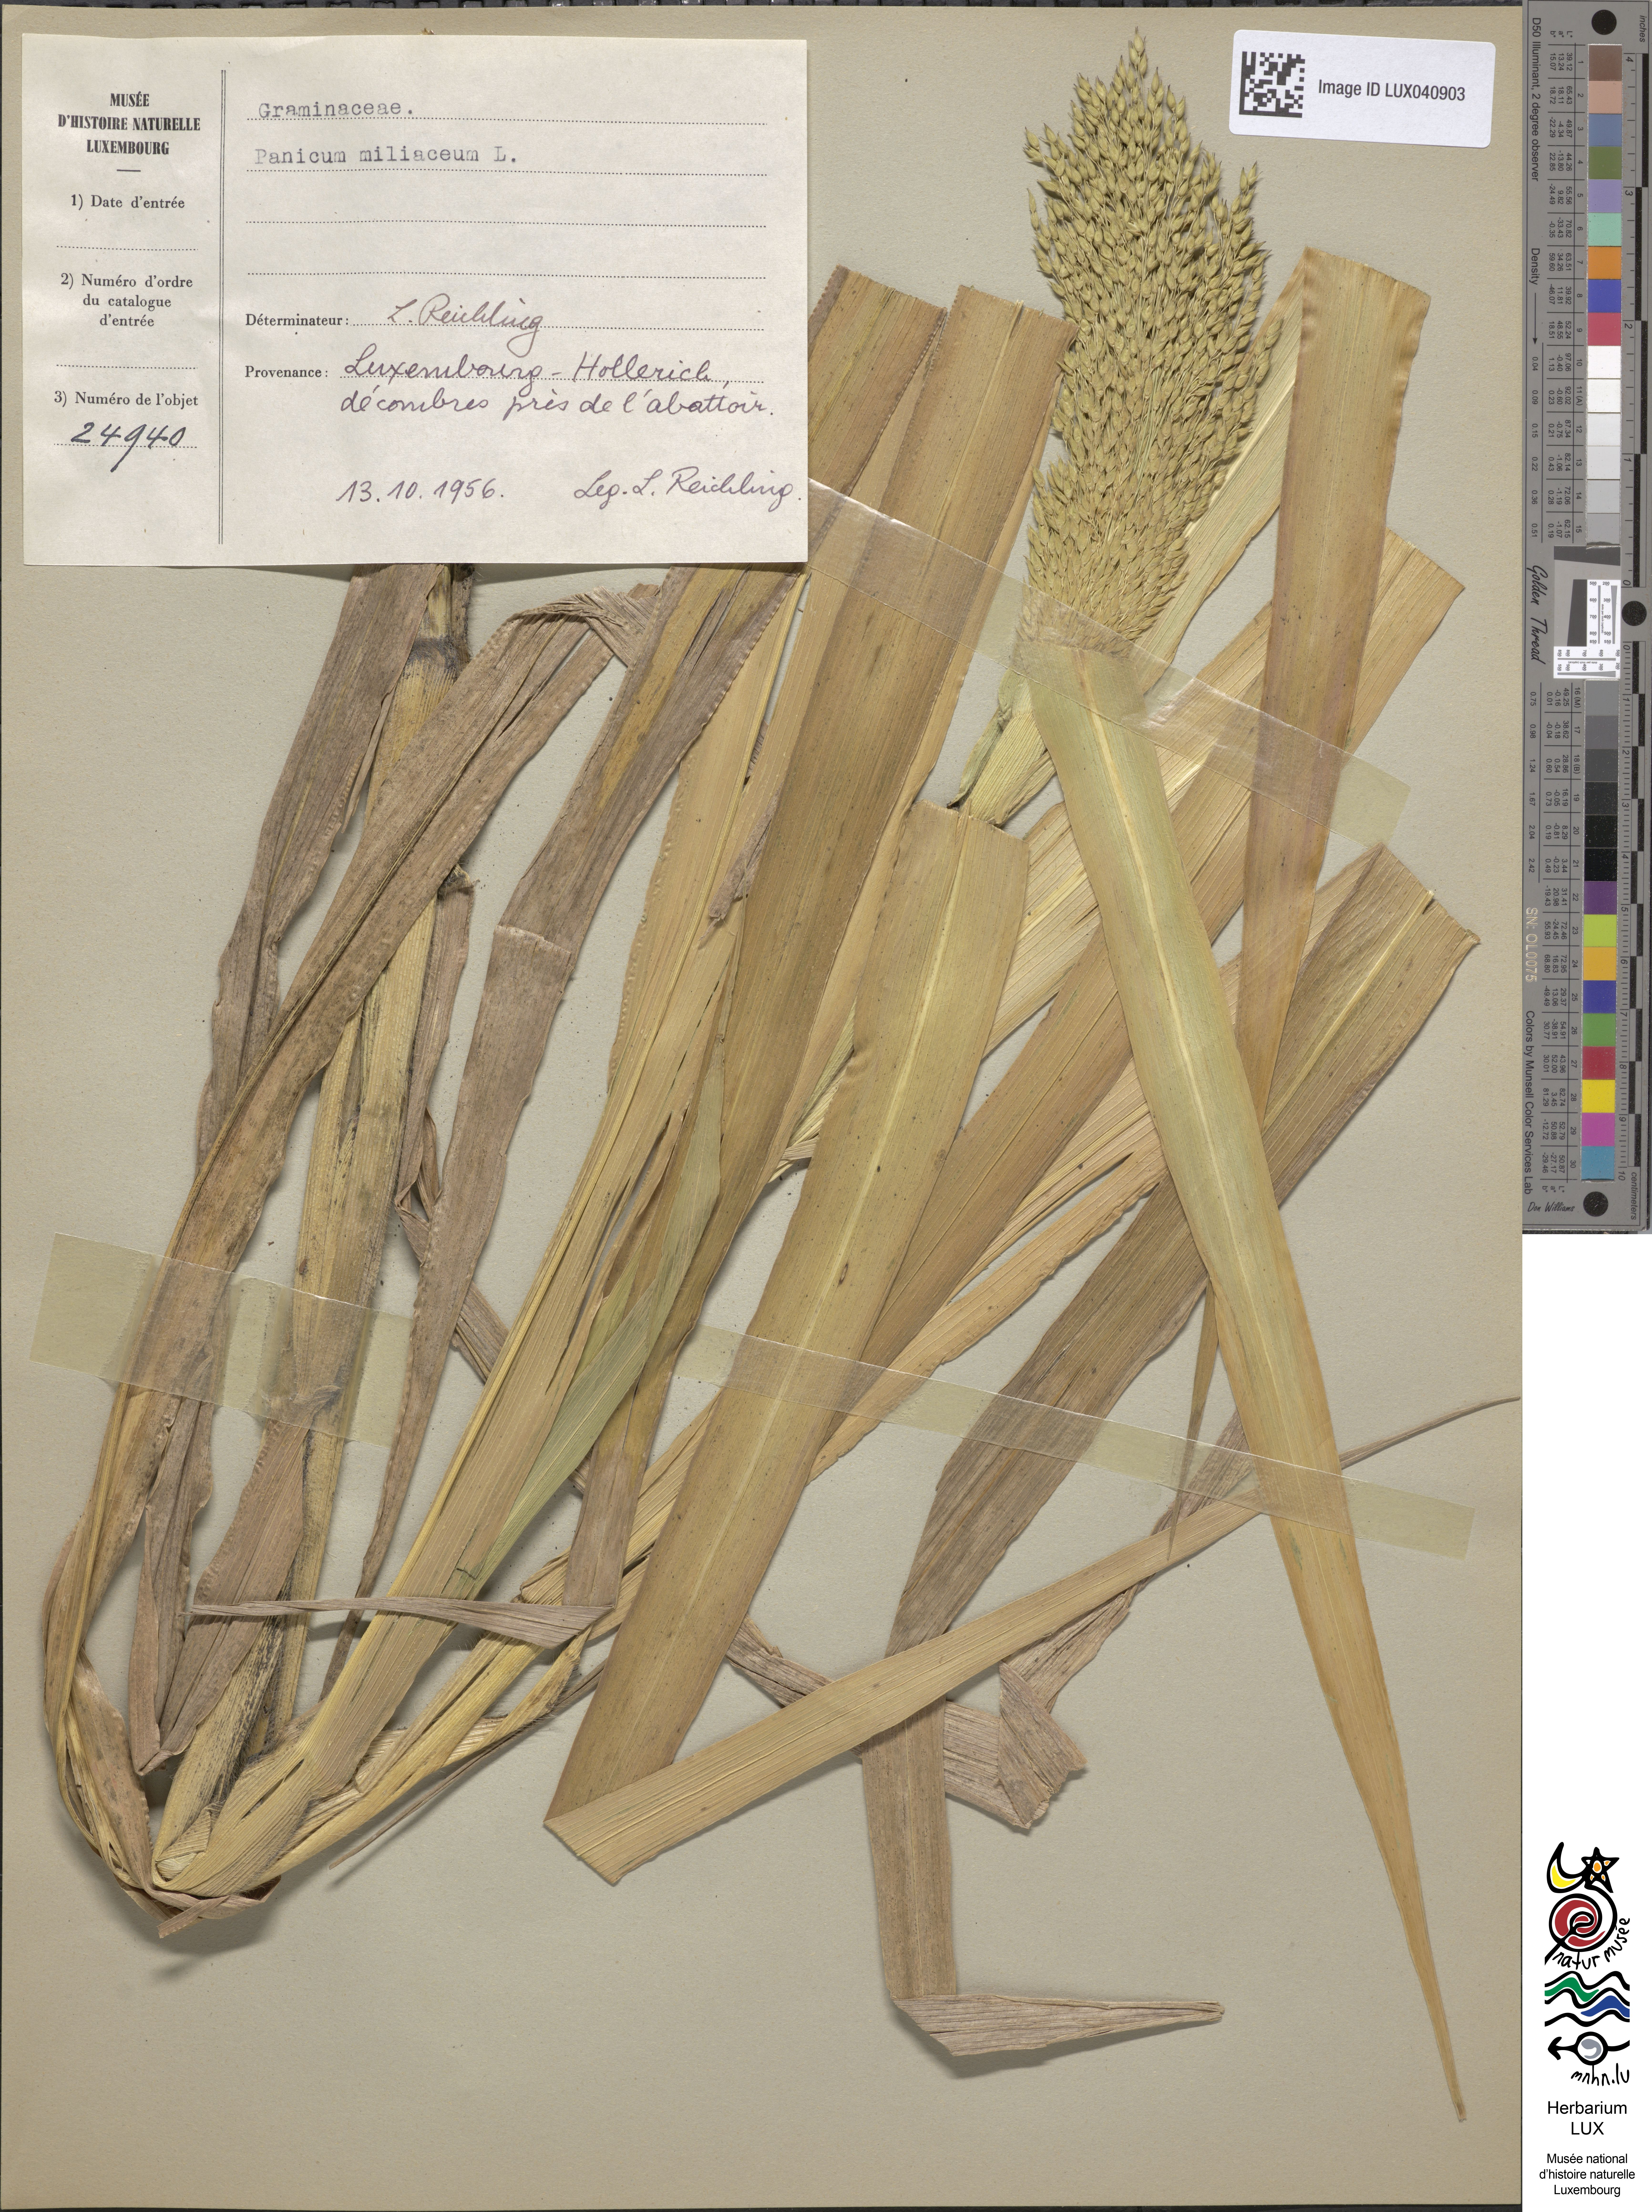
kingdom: Plantae
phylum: Tracheophyta
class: Liliopsida
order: Poales
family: Poaceae
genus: Panicum
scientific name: Panicum miliaceum
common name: Common millet
